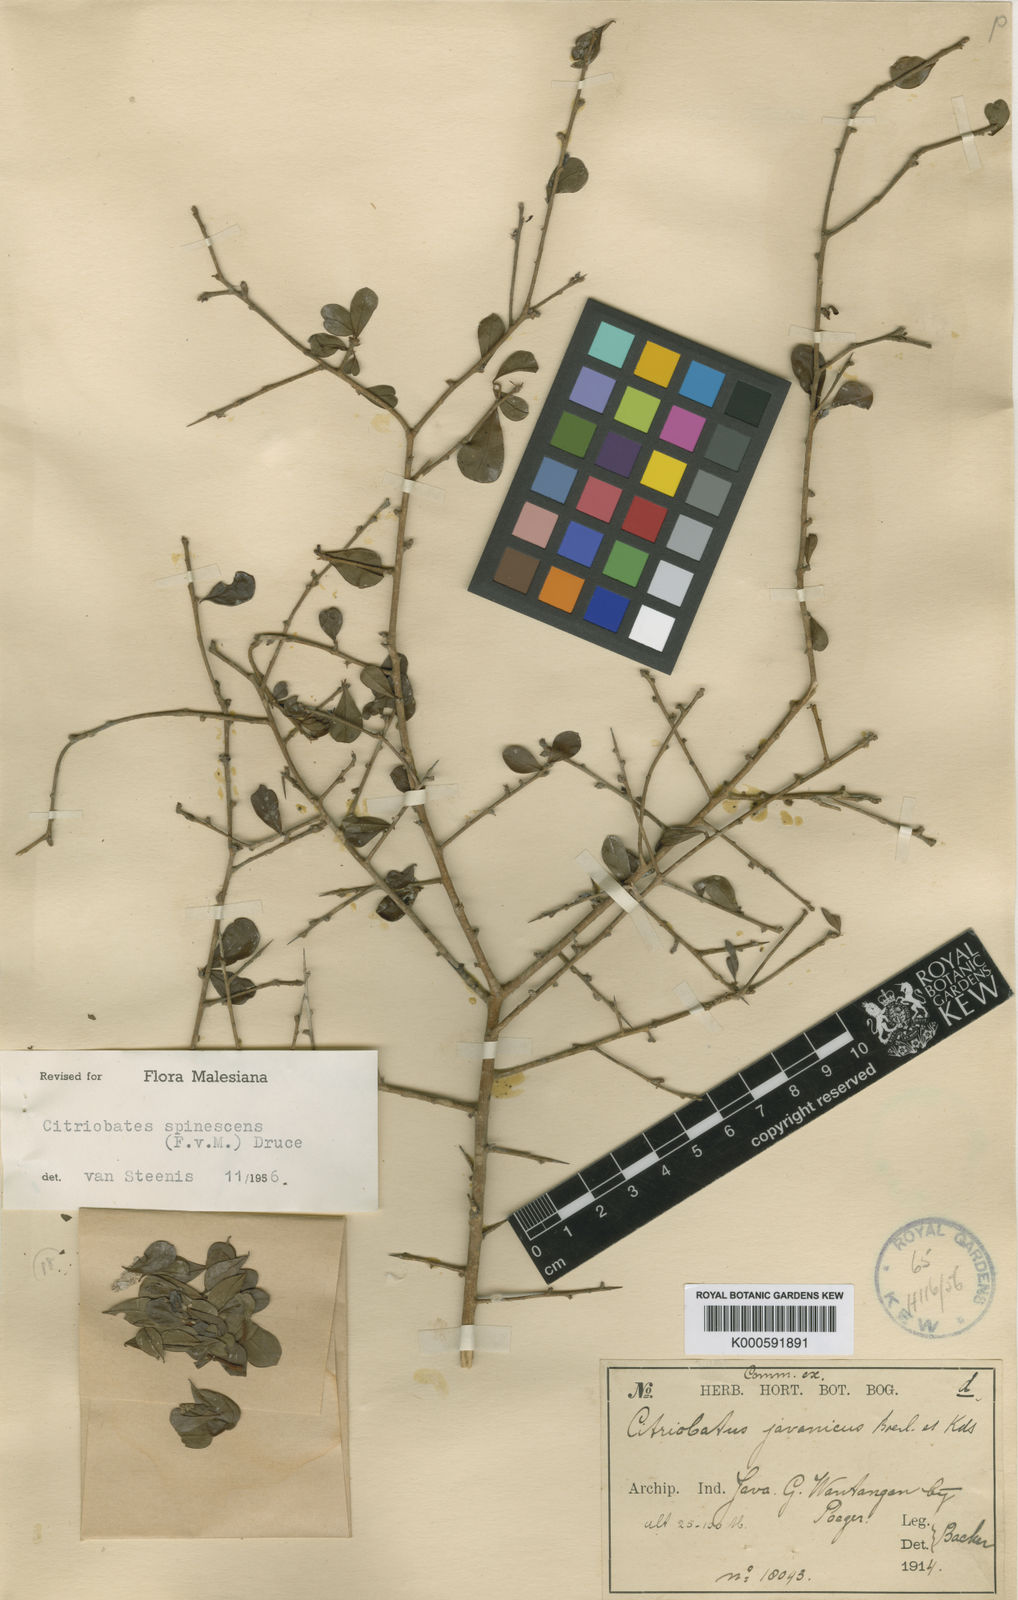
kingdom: Plantae
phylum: Tracheophyta
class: Magnoliopsida
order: Apiales
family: Pittosporaceae
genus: Pittosporum
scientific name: Pittosporum spinescens
